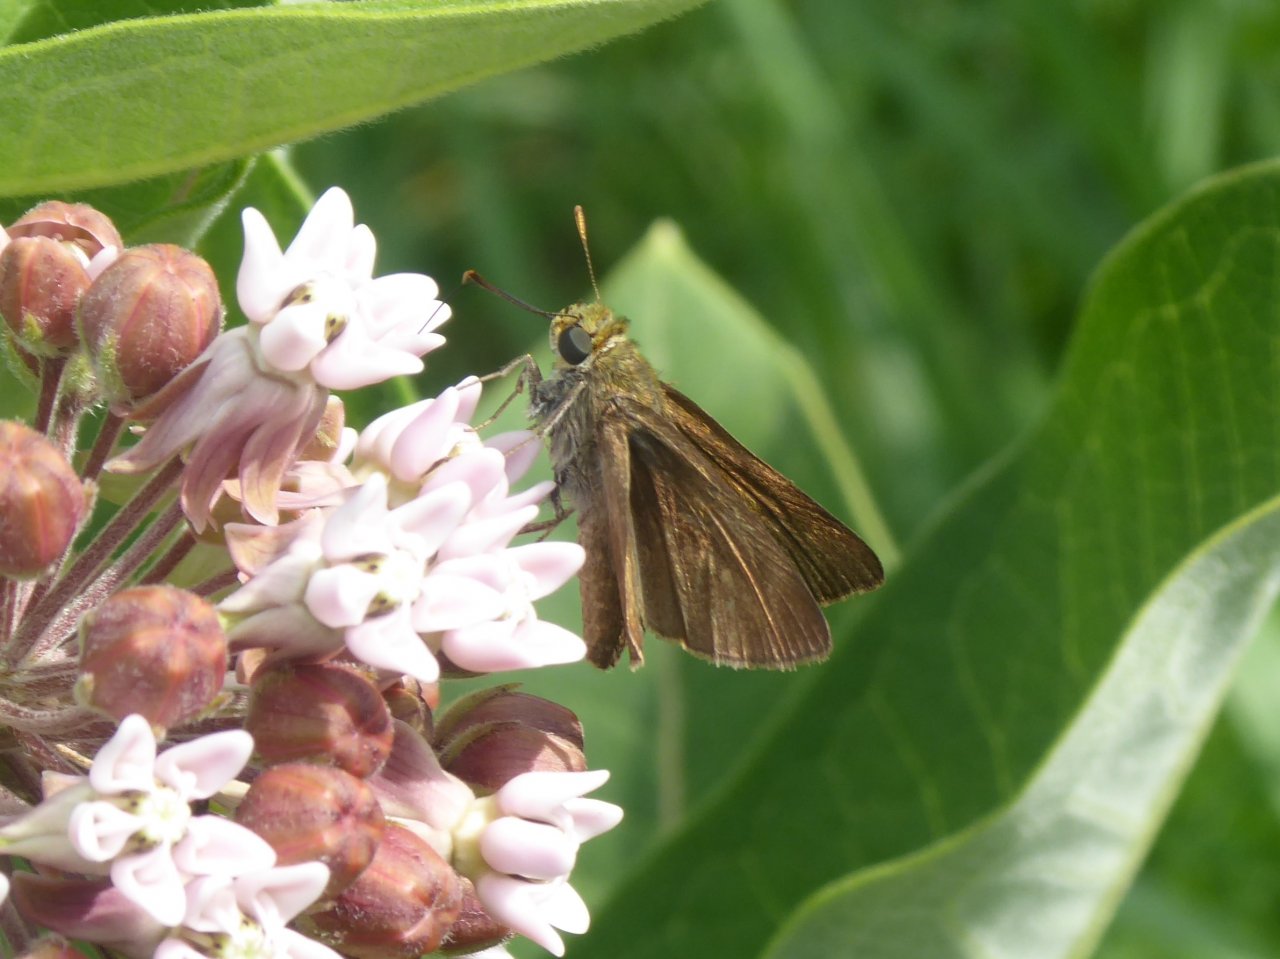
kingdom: Animalia
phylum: Arthropoda
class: Insecta
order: Lepidoptera
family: Hesperiidae
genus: Euphyes
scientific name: Euphyes vestris
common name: Dun Skipper
